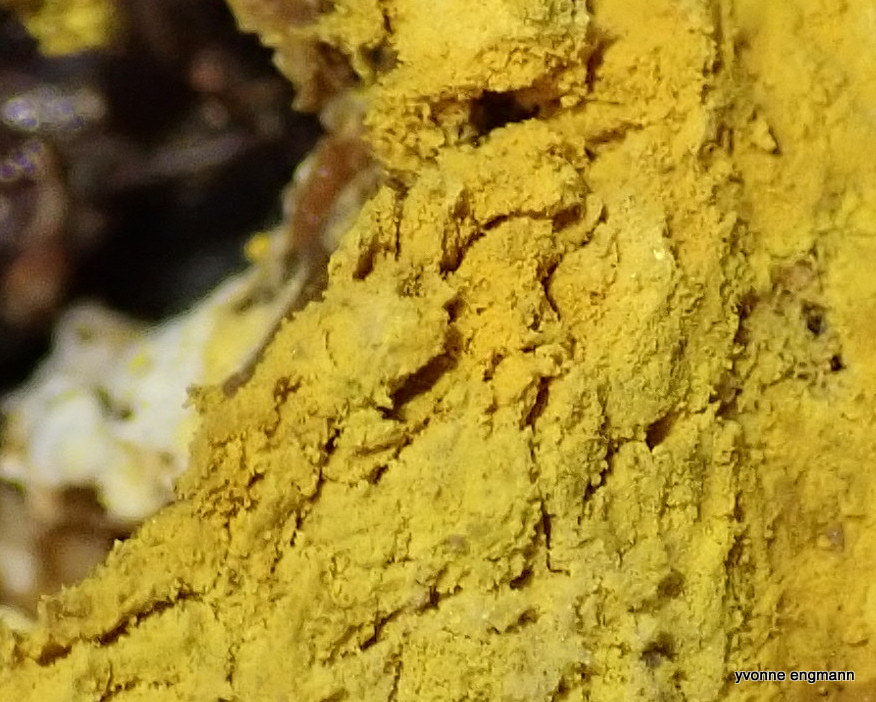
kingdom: Fungi
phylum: Ascomycota
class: Sordariomycetes
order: Hypocreales
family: Hypocreaceae
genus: Hypomyces
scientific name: Hypomyces
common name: snylteskorpe
